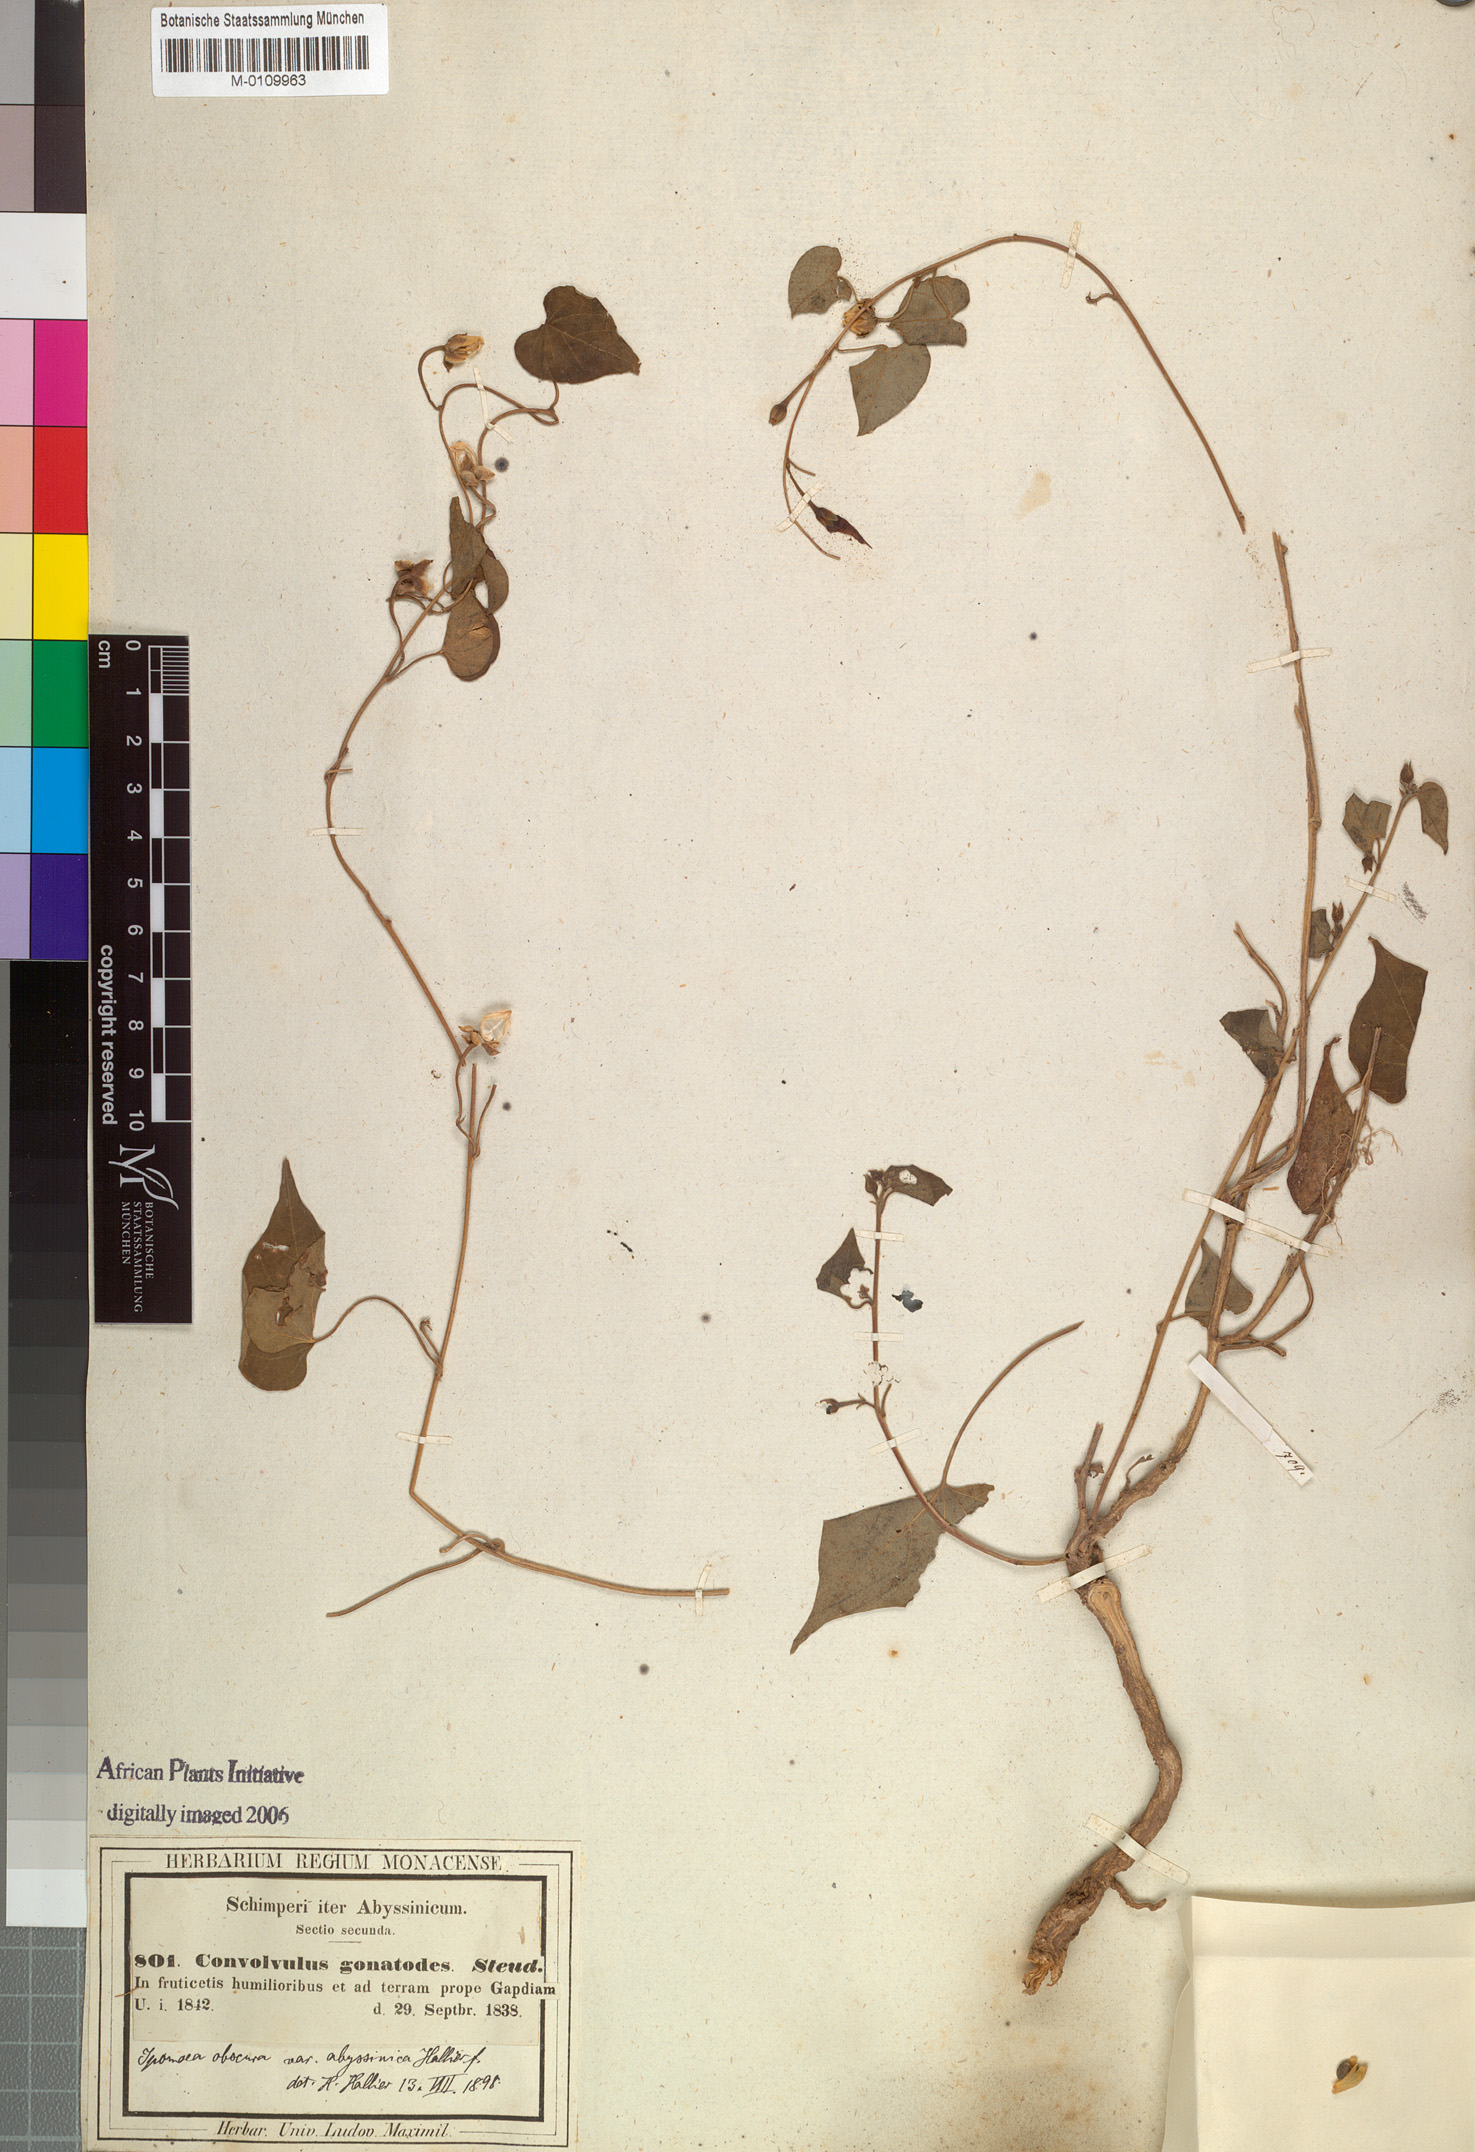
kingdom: Plantae
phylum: Tracheophyta
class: Magnoliopsida
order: Solanales
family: Convolvulaceae
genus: Ipomoea
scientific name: Ipomoea obscura
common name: Obscure morning-glory
